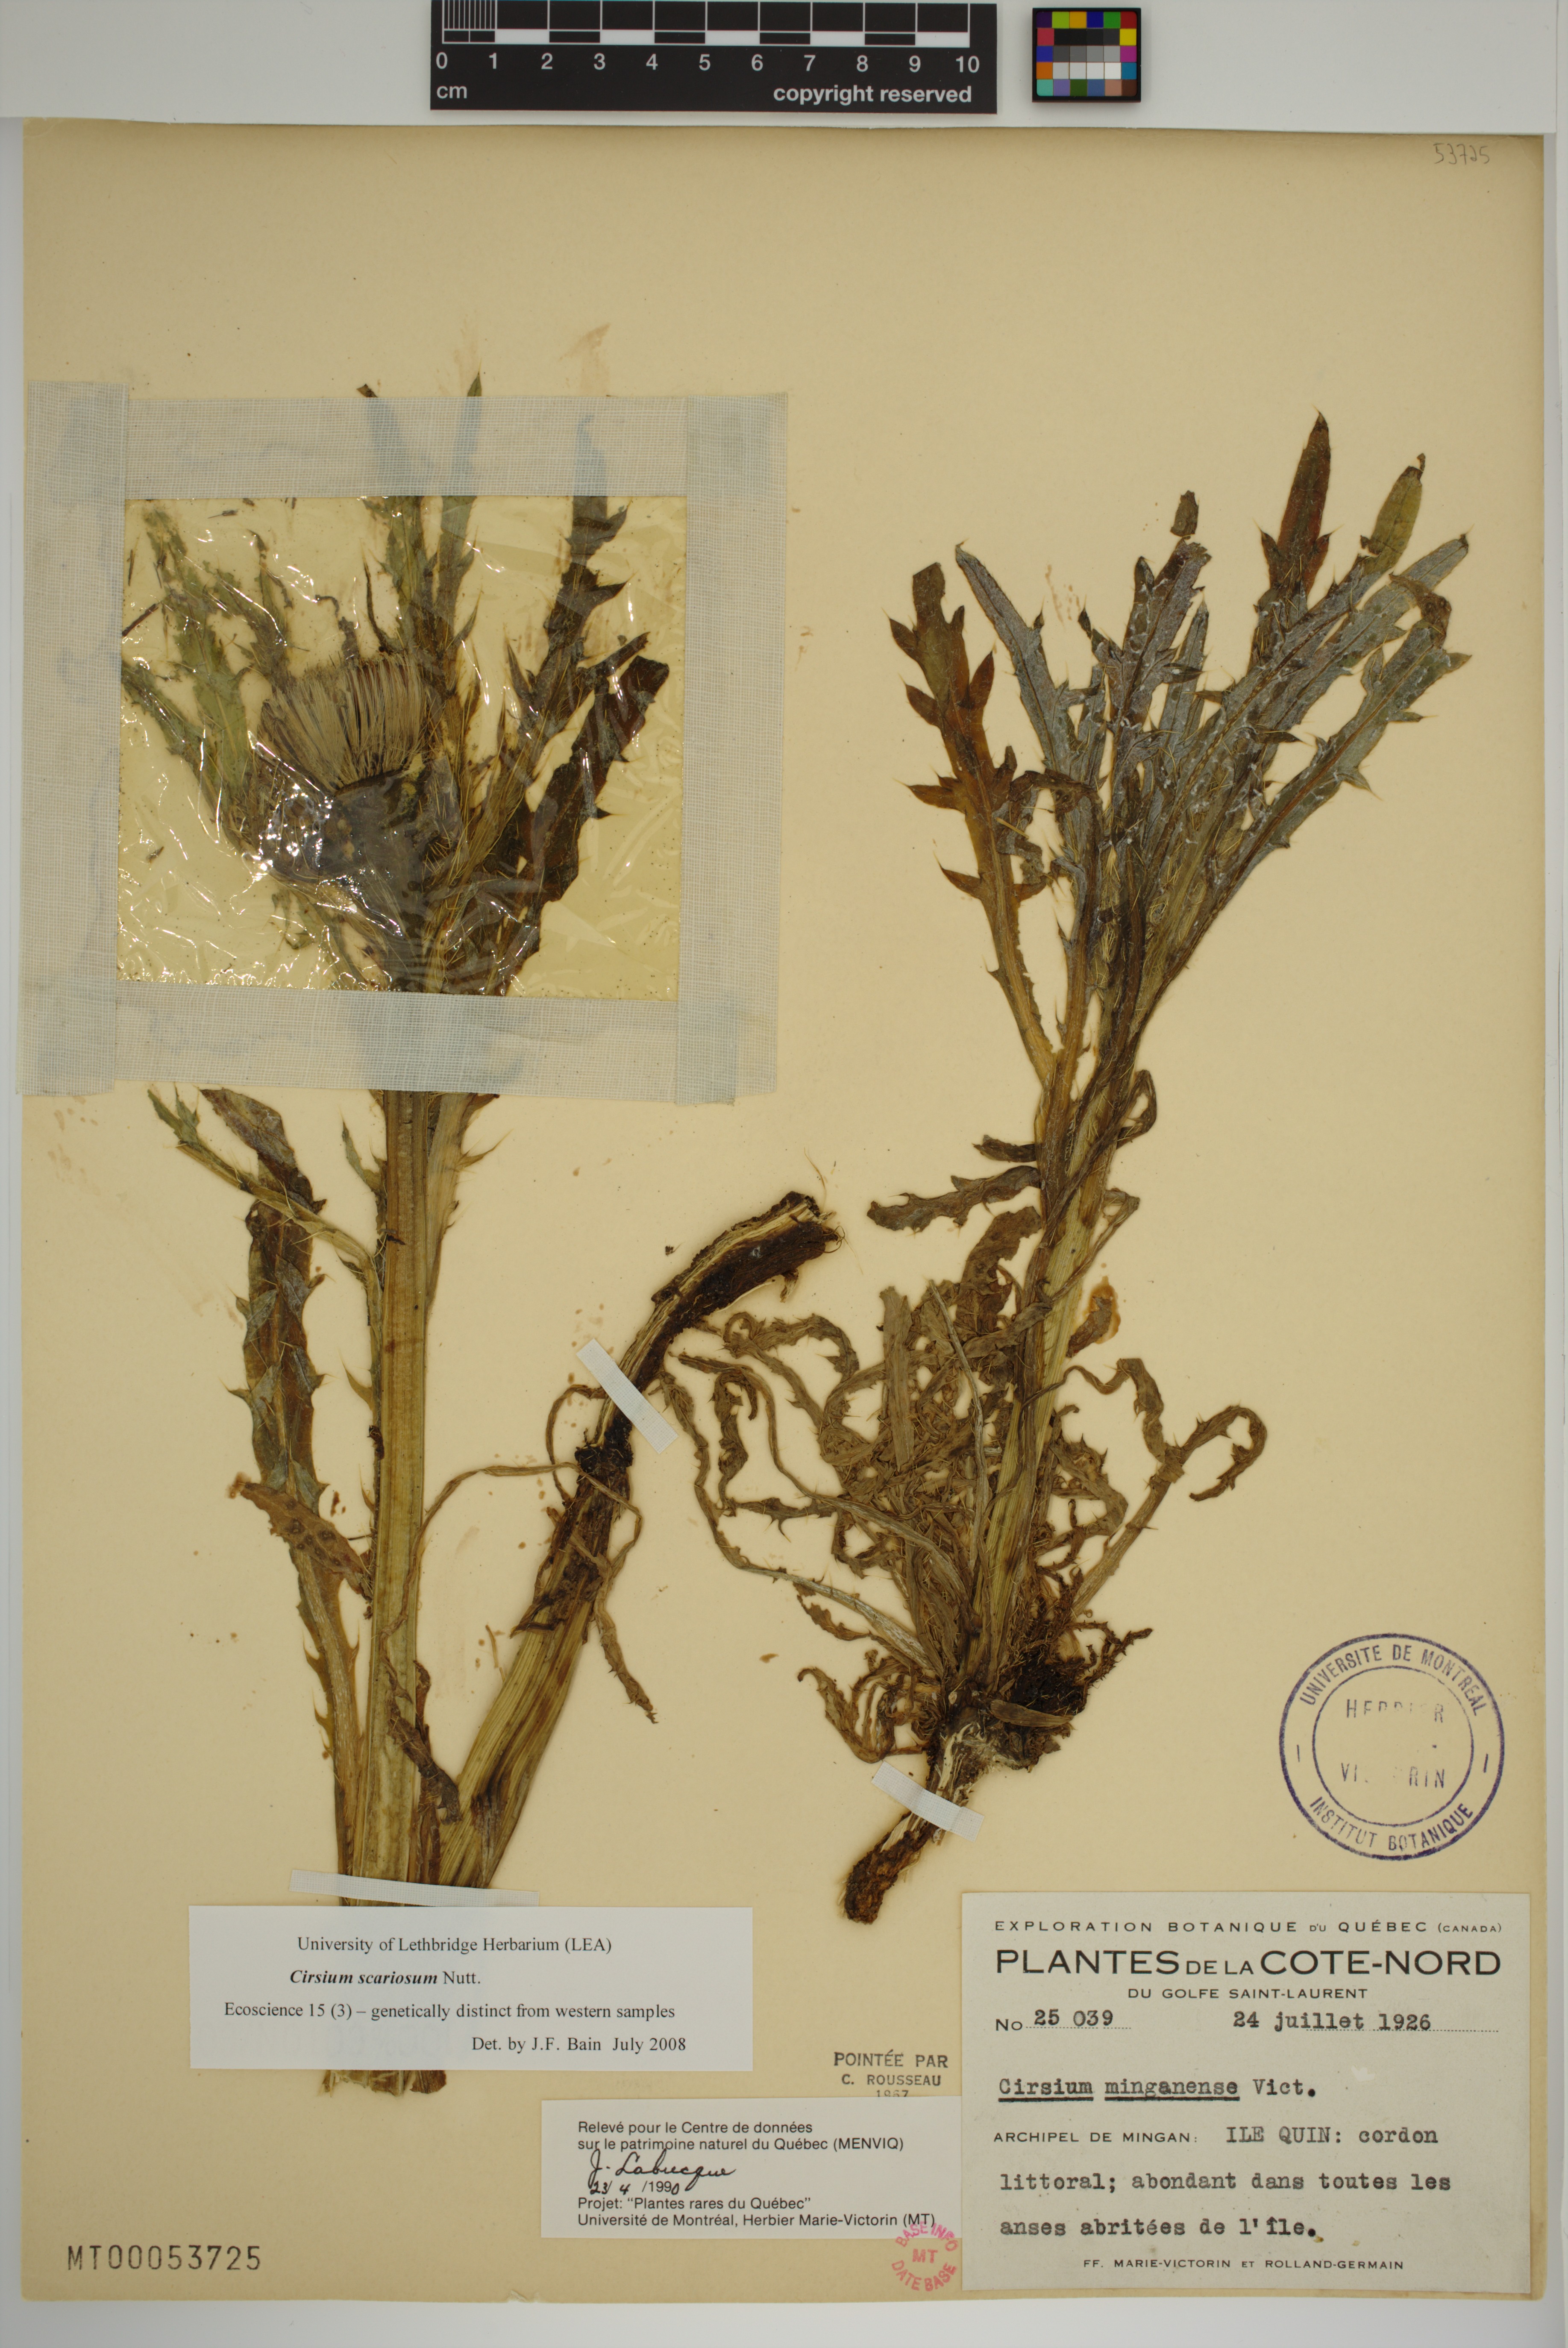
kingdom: Plantae
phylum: Tracheophyta
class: Magnoliopsida
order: Asterales
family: Asteraceae
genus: Cirsium
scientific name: Cirsium scariosum
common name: Meadow thistle
